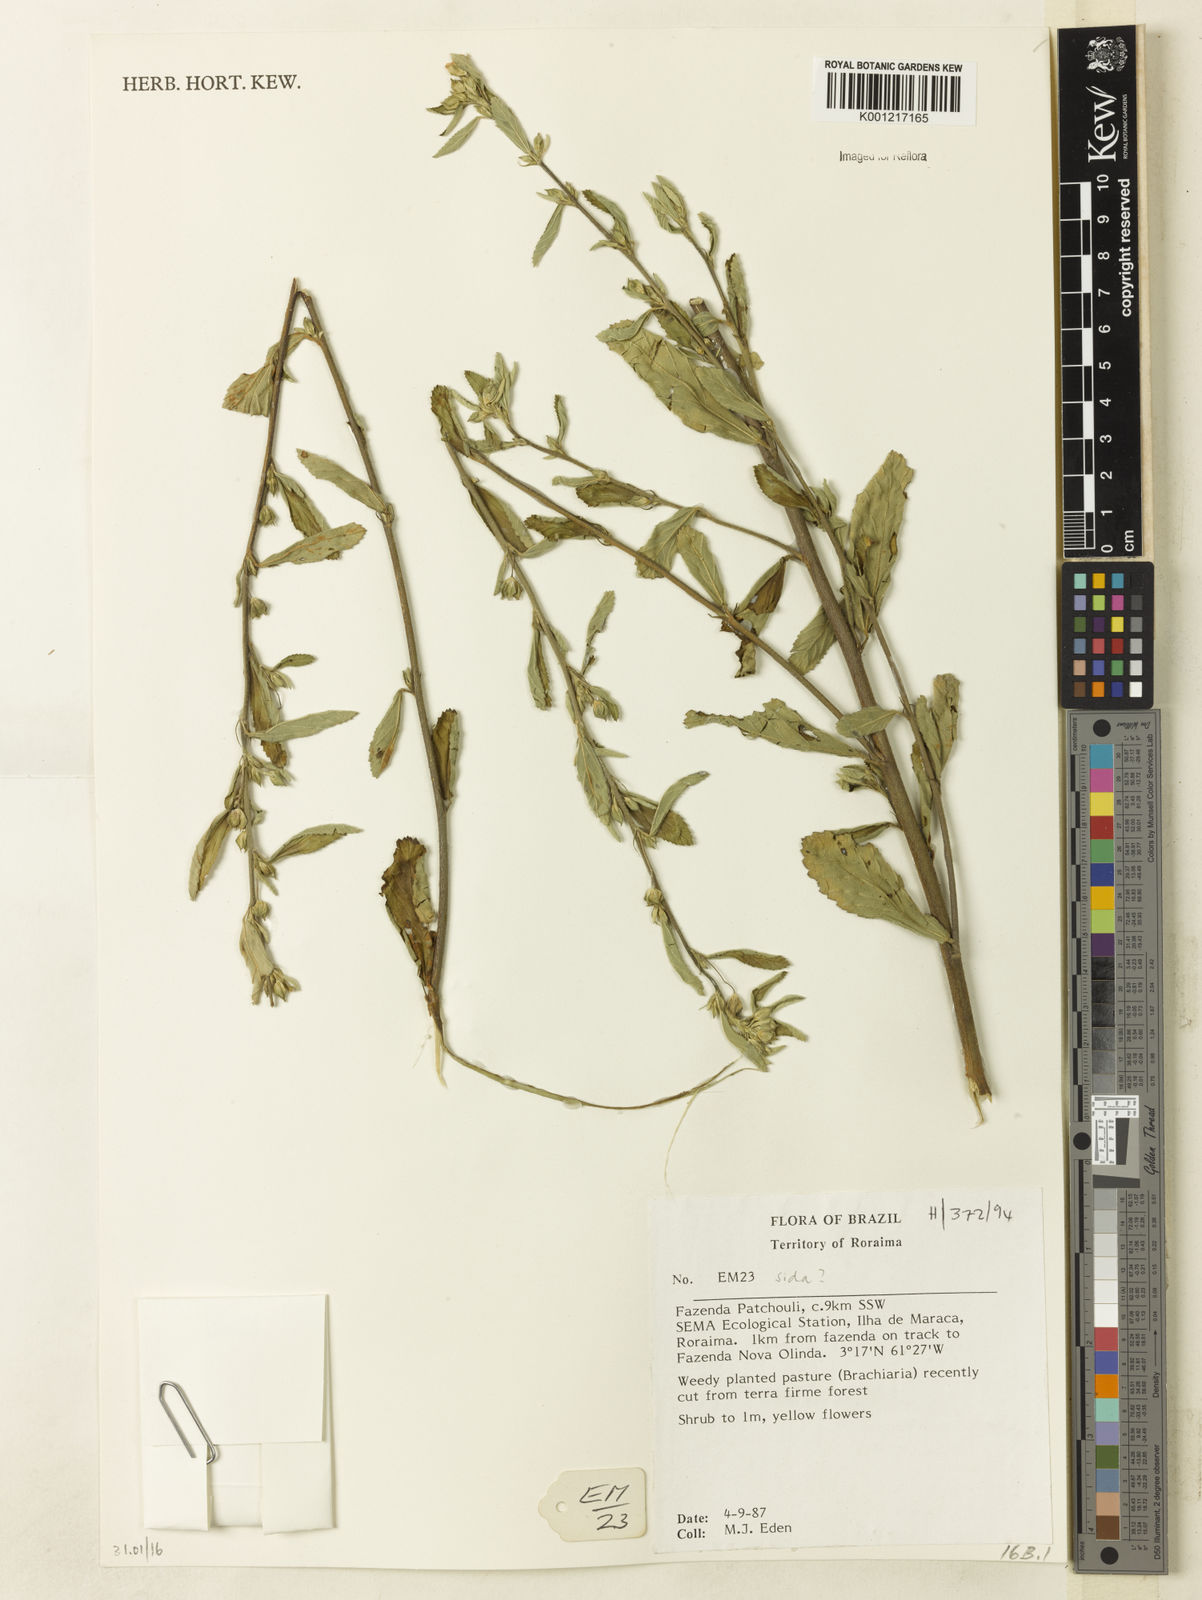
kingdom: Plantae
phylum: Tracheophyta
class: Magnoliopsida
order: Malvales
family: Malvaceae
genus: Sida
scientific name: Sida
